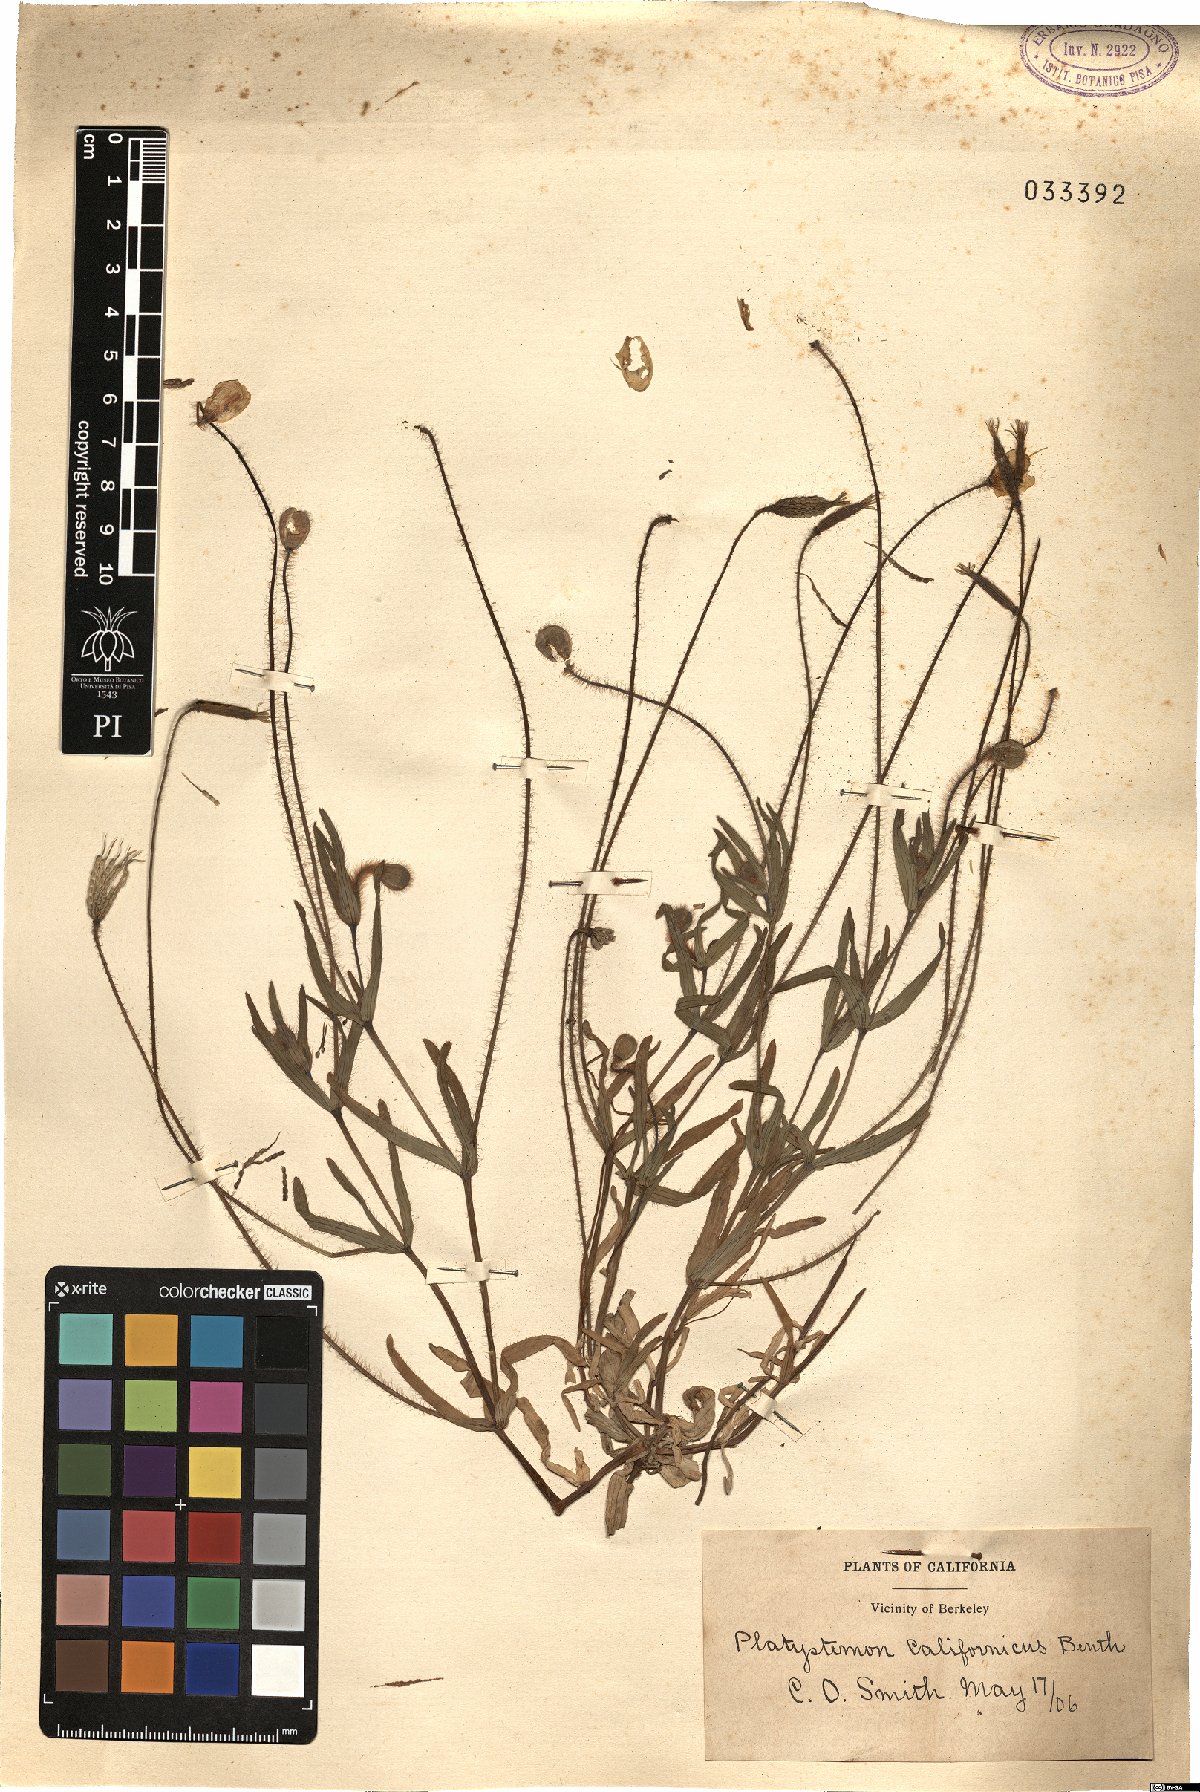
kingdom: Plantae
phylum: Tracheophyta
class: Magnoliopsida
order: Ranunculales
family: Papaveraceae
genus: Platystemon
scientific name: Platystemon californicus
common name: Cream-cups
